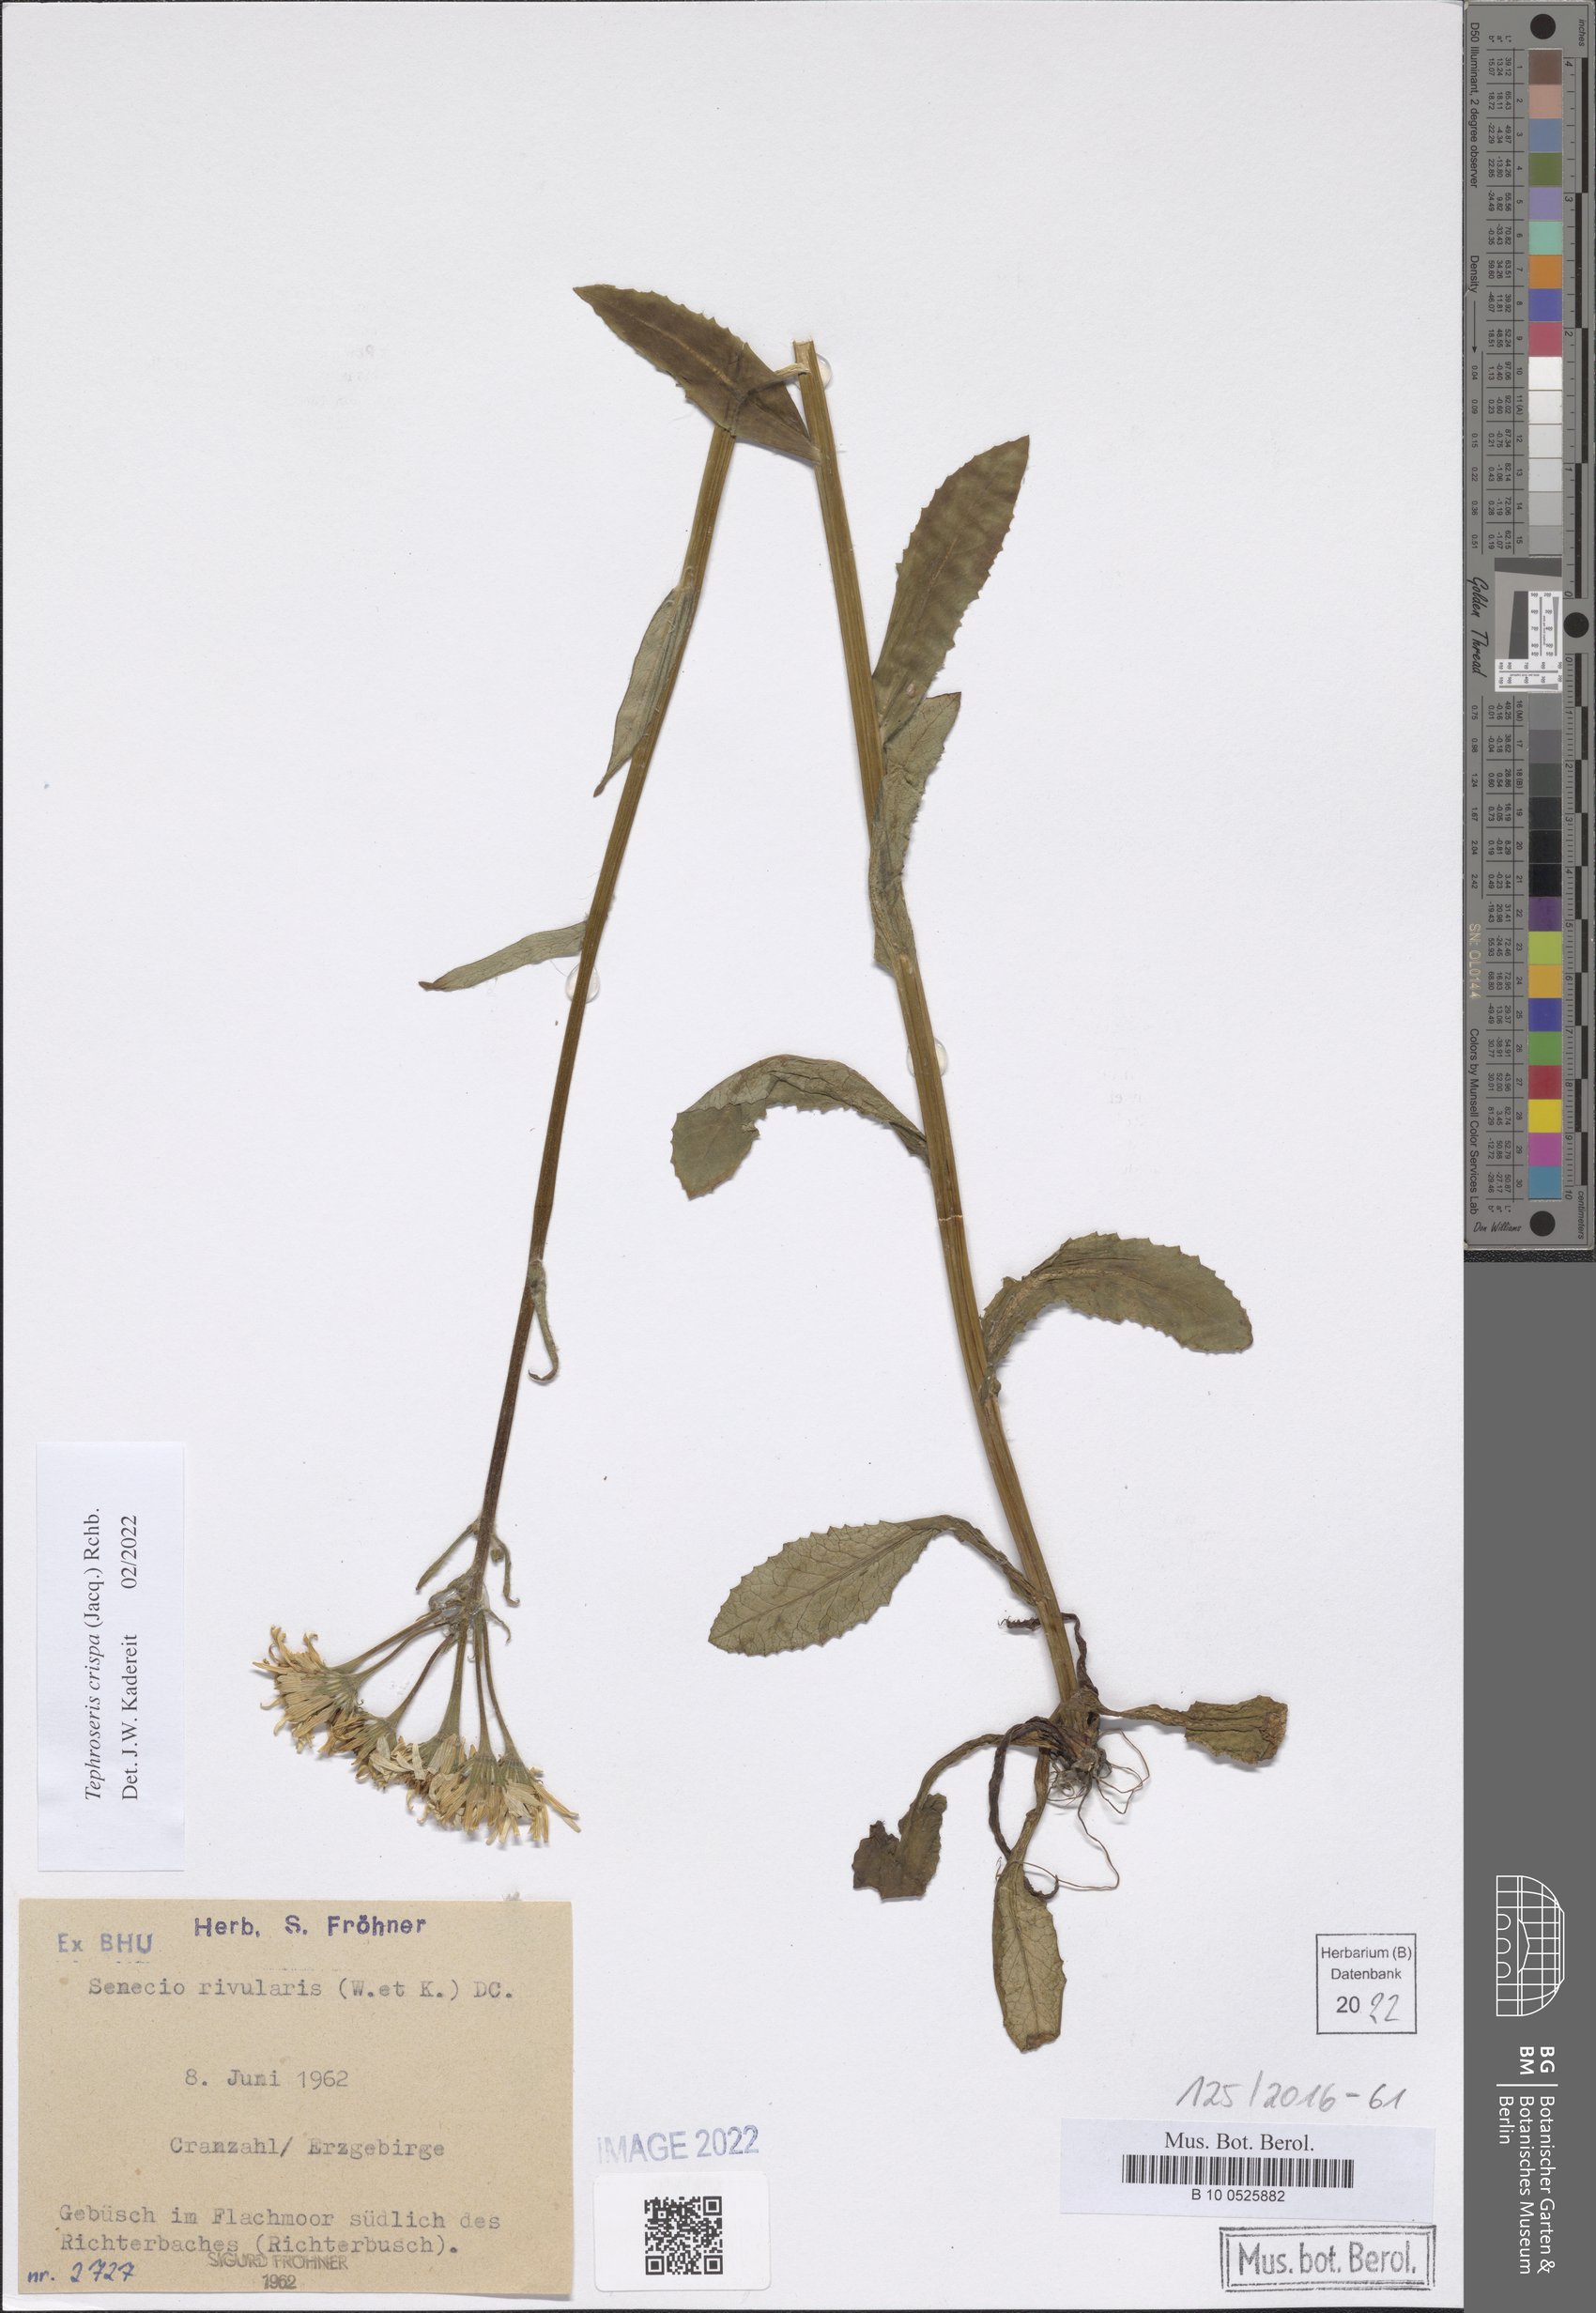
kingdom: Plantae
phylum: Tracheophyta
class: Magnoliopsida
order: Asterales
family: Asteraceae
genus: Tephroseris
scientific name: Tephroseris crispa
